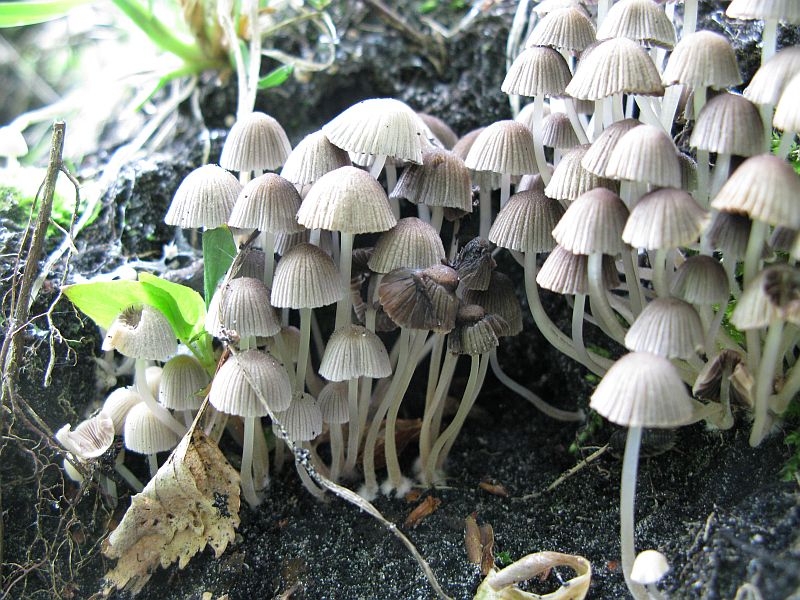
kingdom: Fungi
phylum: Basidiomycota
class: Agaricomycetes
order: Agaricales
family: Psathyrellaceae
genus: Coprinellus
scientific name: Coprinellus disseminatus
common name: bredsået blækhat
